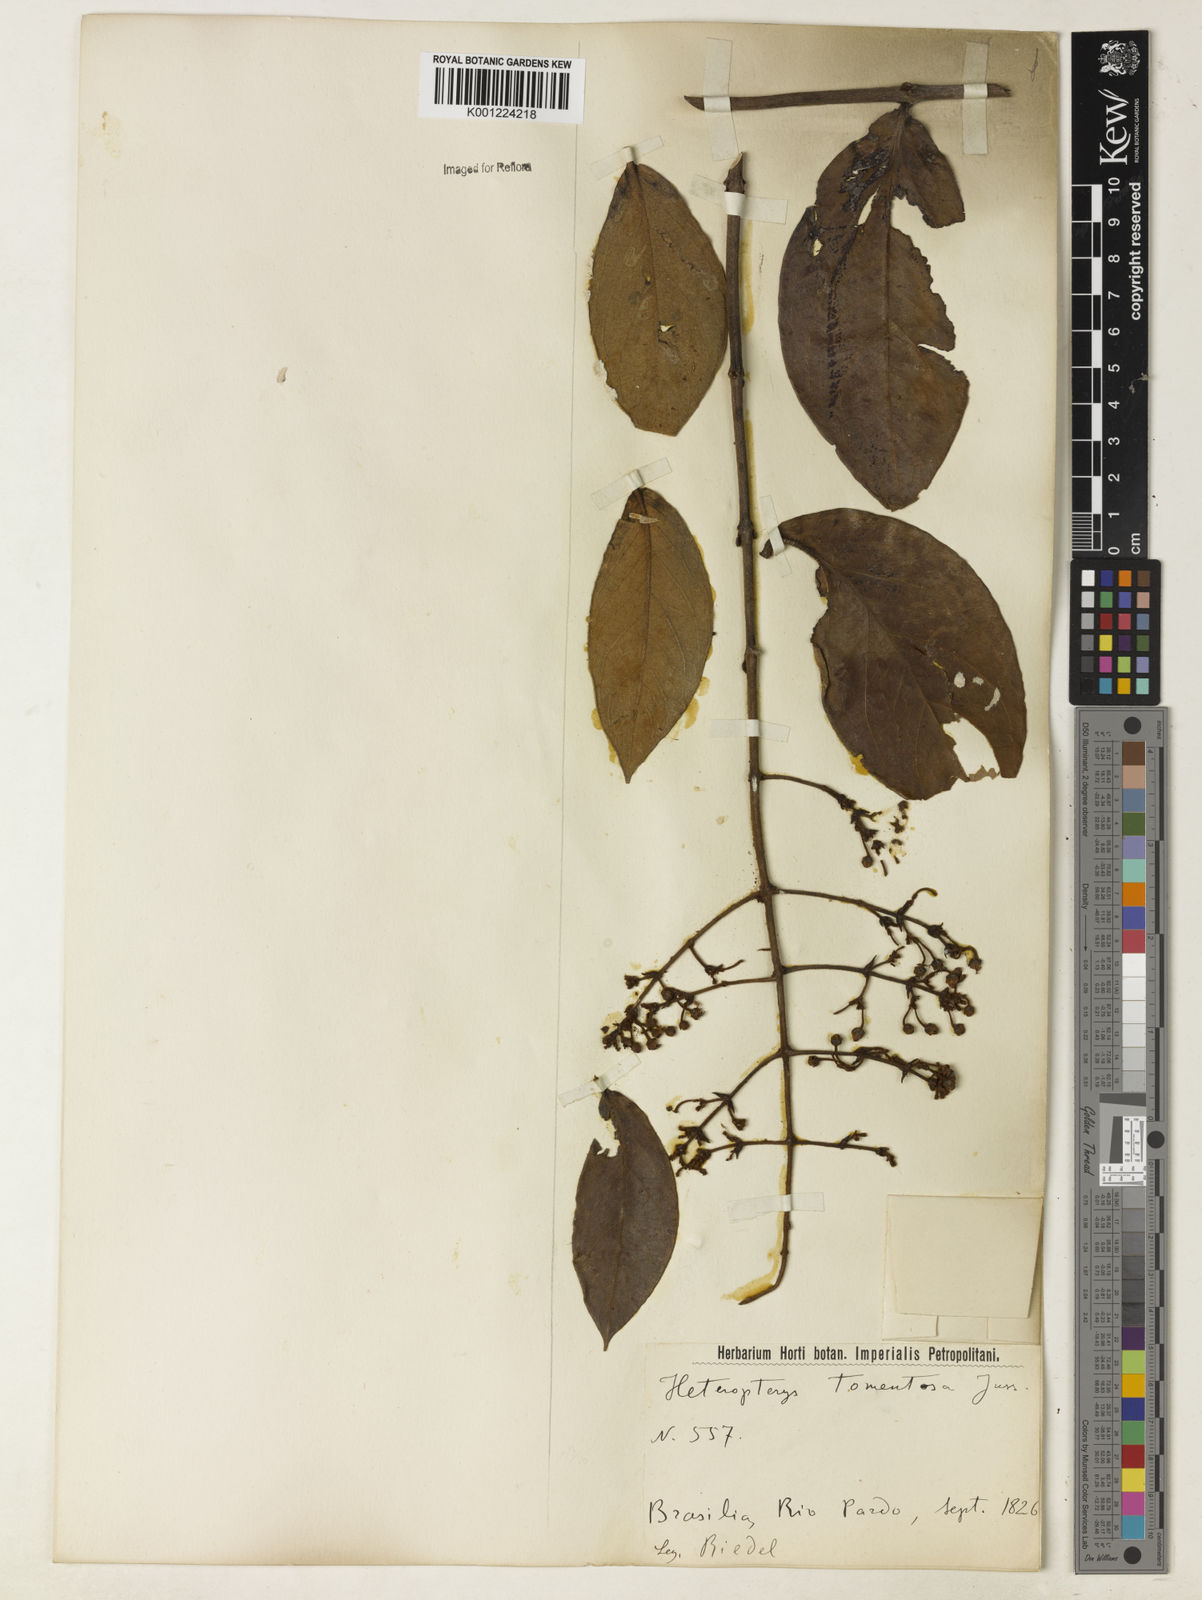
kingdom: Plantae
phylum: Tracheophyta
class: Magnoliopsida
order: Malpighiales
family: Malpighiaceae
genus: Heteropterys
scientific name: Heteropterys tomentosa
